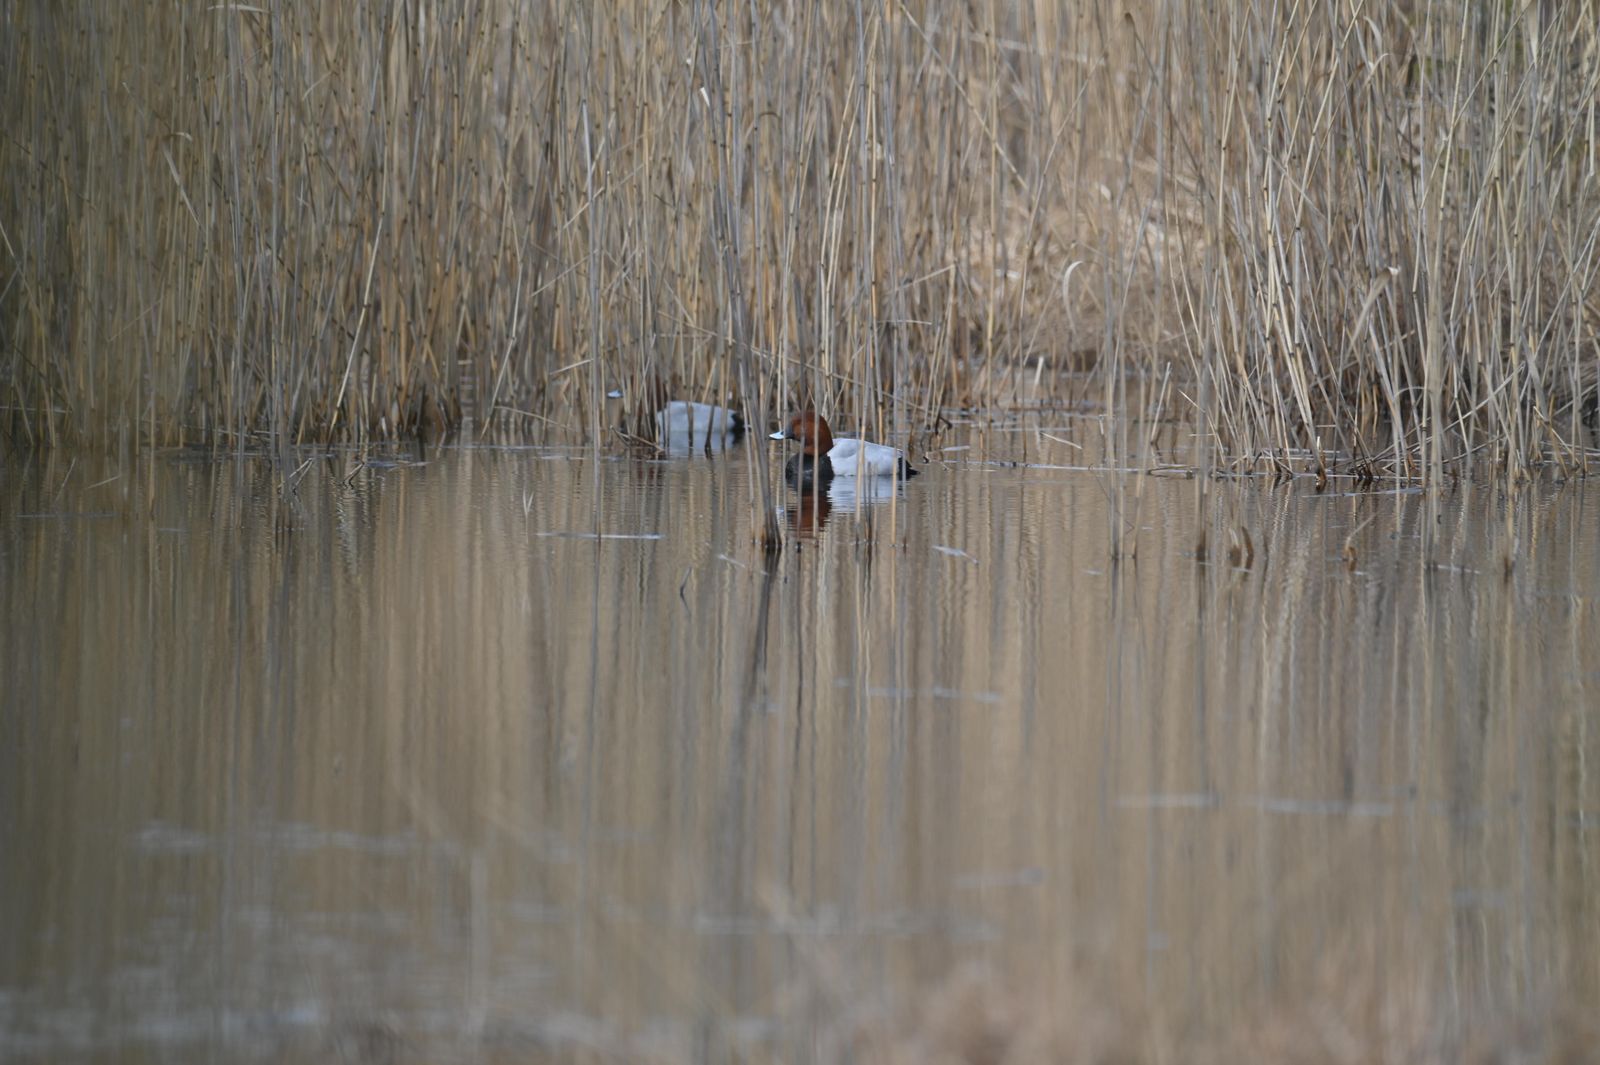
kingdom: Animalia
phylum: Chordata
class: Aves
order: Anseriformes
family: Anatidae
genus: Aythya
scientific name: Aythya ferina
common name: Common pochard
